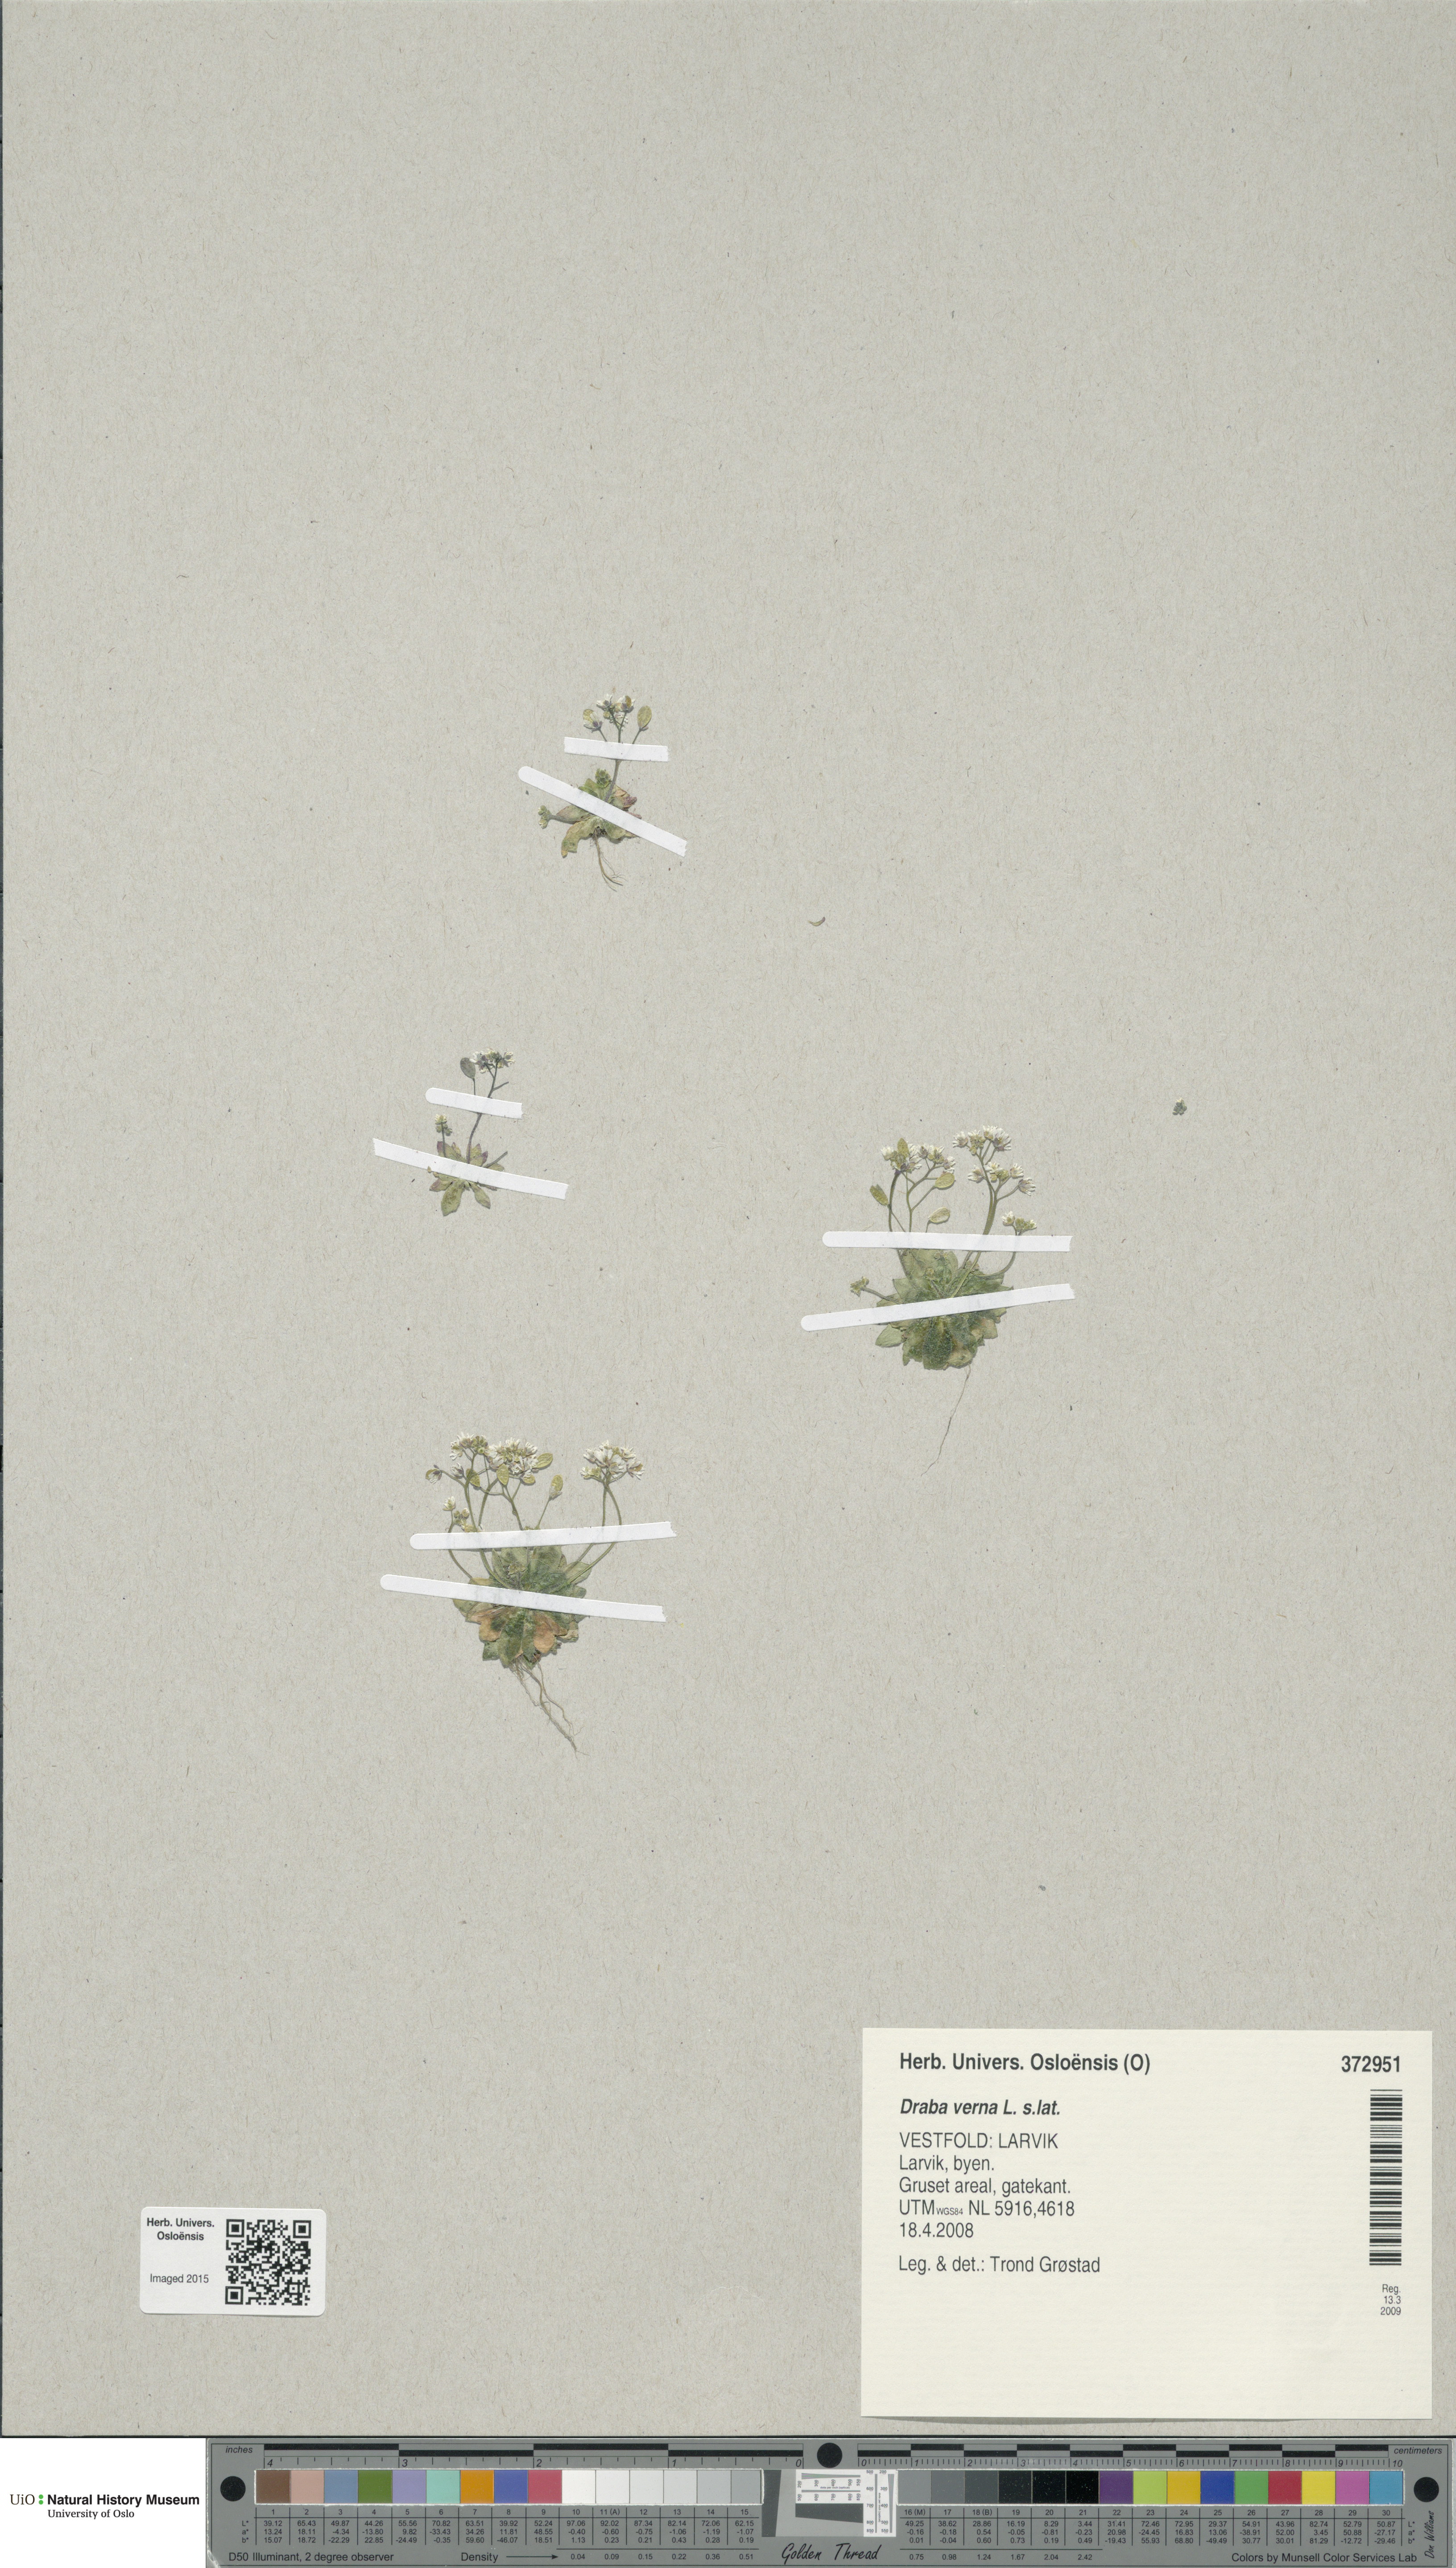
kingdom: Plantae
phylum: Tracheophyta
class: Magnoliopsida
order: Brassicales
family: Brassicaceae
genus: Draba
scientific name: Draba verna
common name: Spring draba
